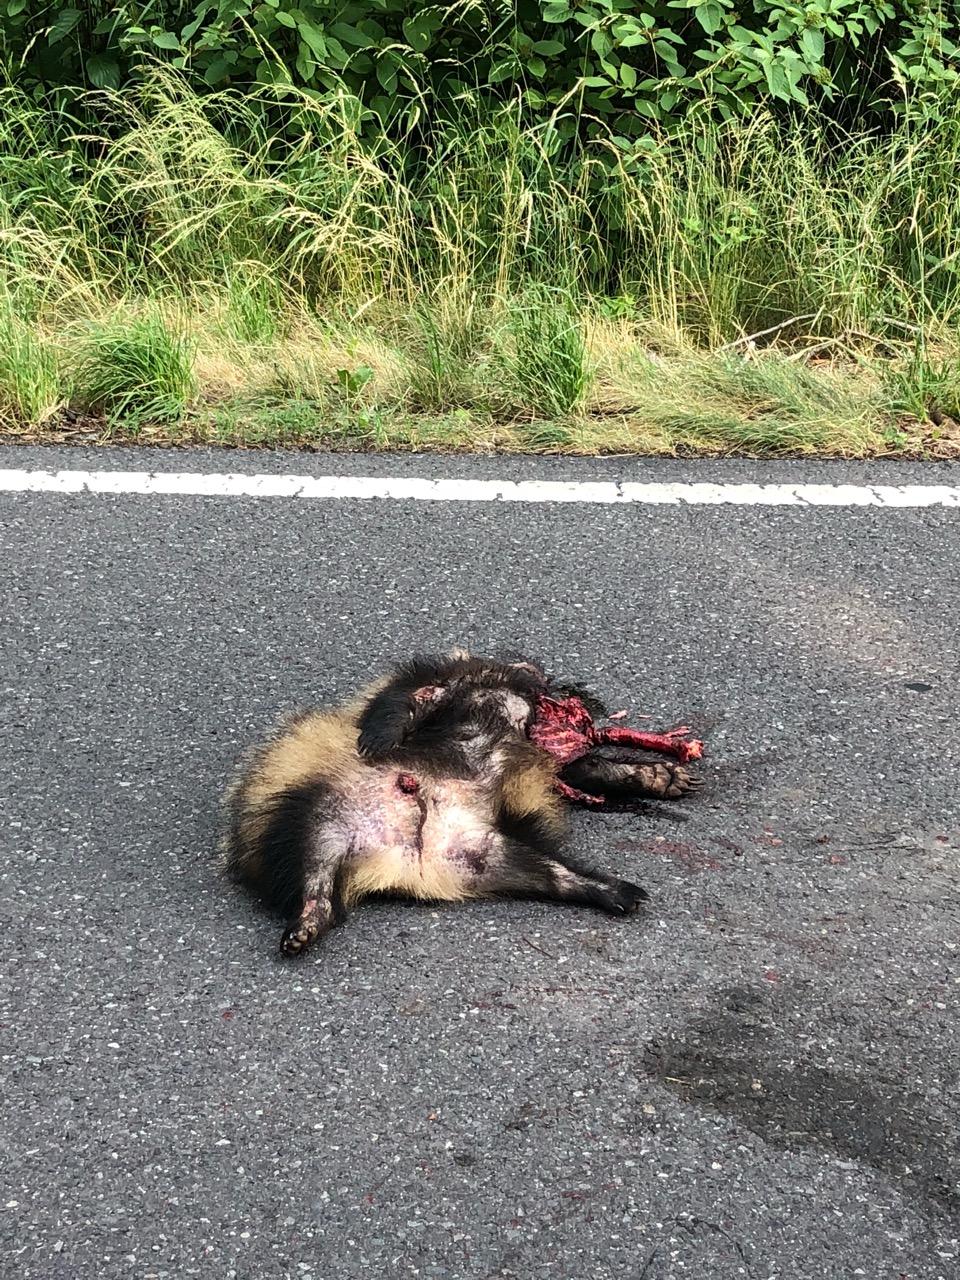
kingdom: Animalia
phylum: Chordata
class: Mammalia
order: Carnivora
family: Canidae
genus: Nyctereutes
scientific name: Nyctereutes procyonoides
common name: Raccoon dog
